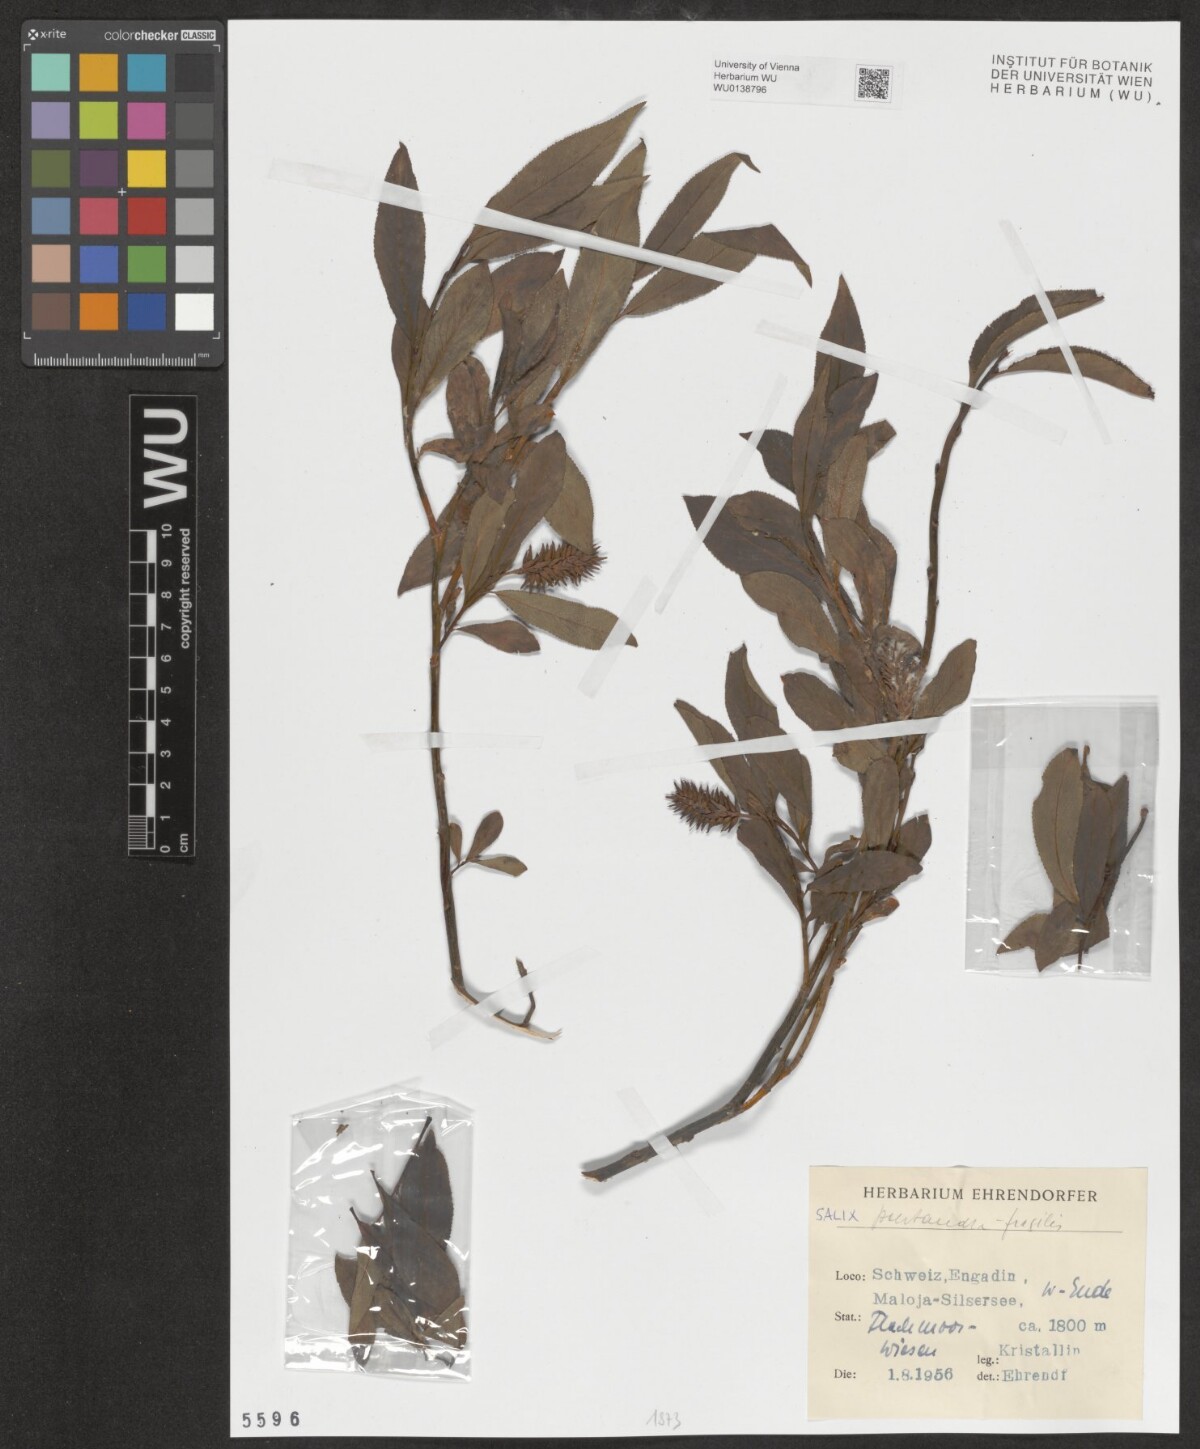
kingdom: Plantae
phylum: Tracheophyta
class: Magnoliopsida
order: Malpighiales
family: Salicaceae
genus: Salix
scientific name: Salix pentandra
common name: Bay willow
